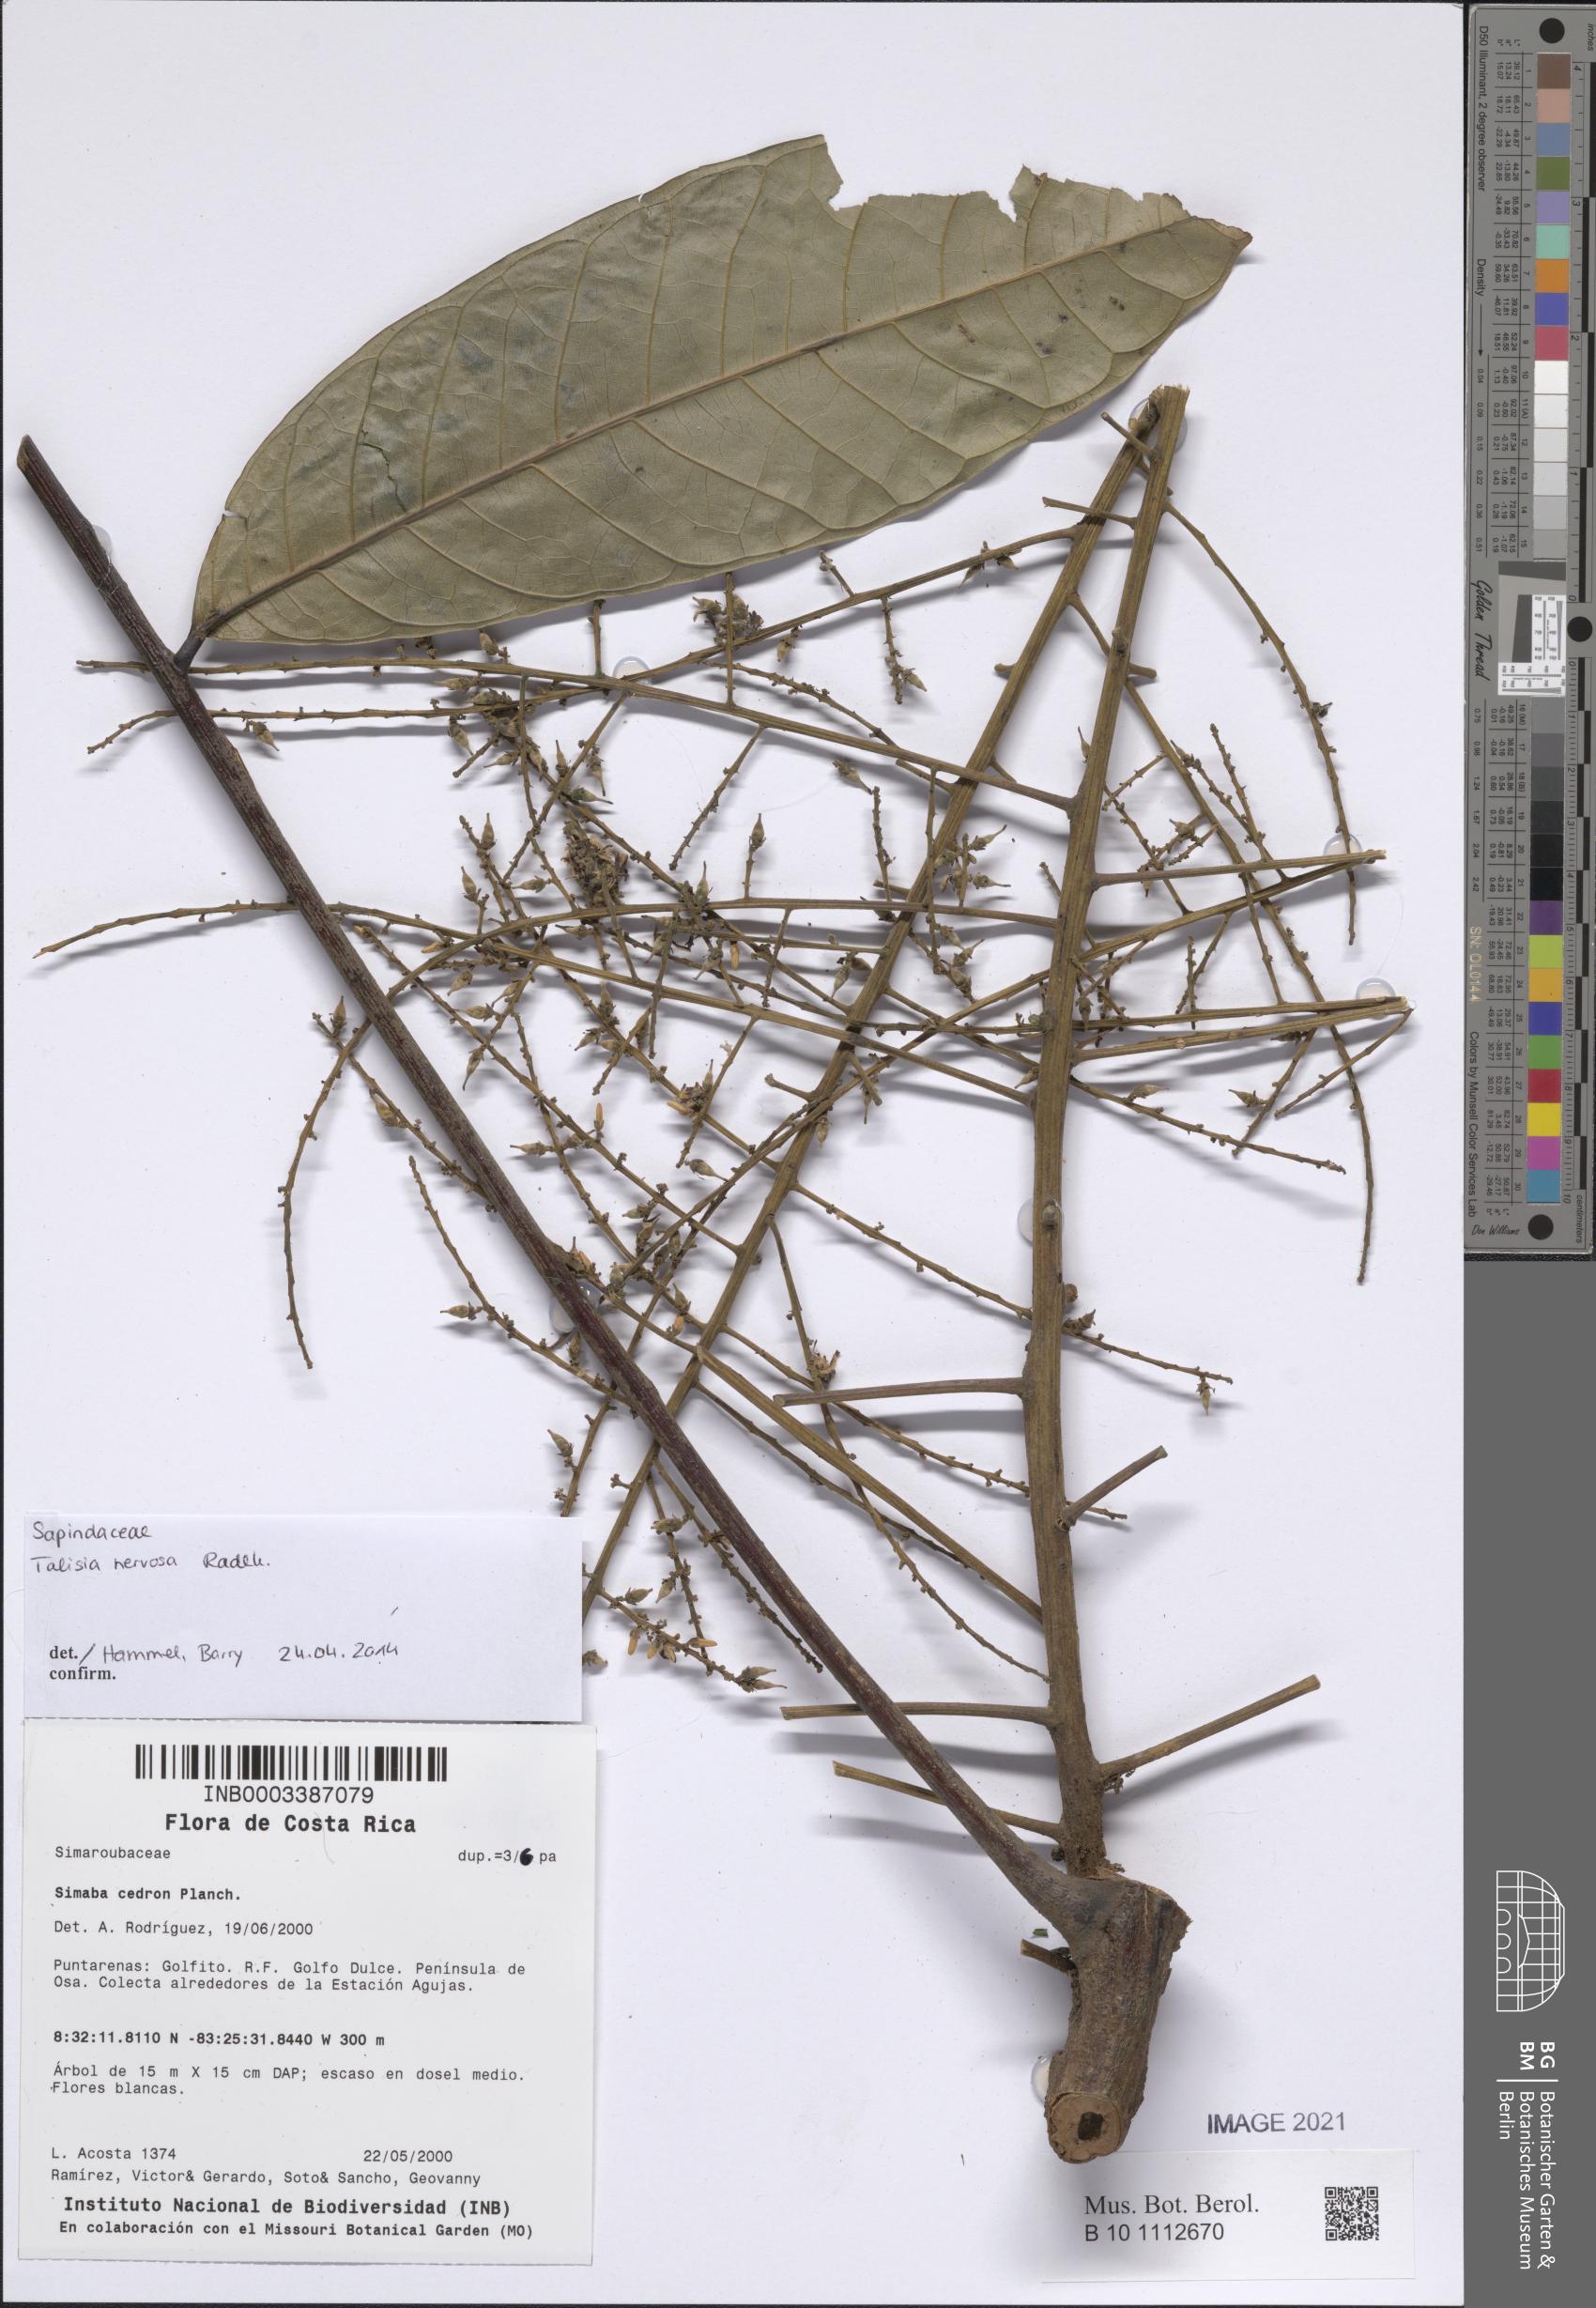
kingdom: Plantae
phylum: Tracheophyta
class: Magnoliopsida
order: Sapindales
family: Sapindaceae
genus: Talisia
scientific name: Talisia nervosa
